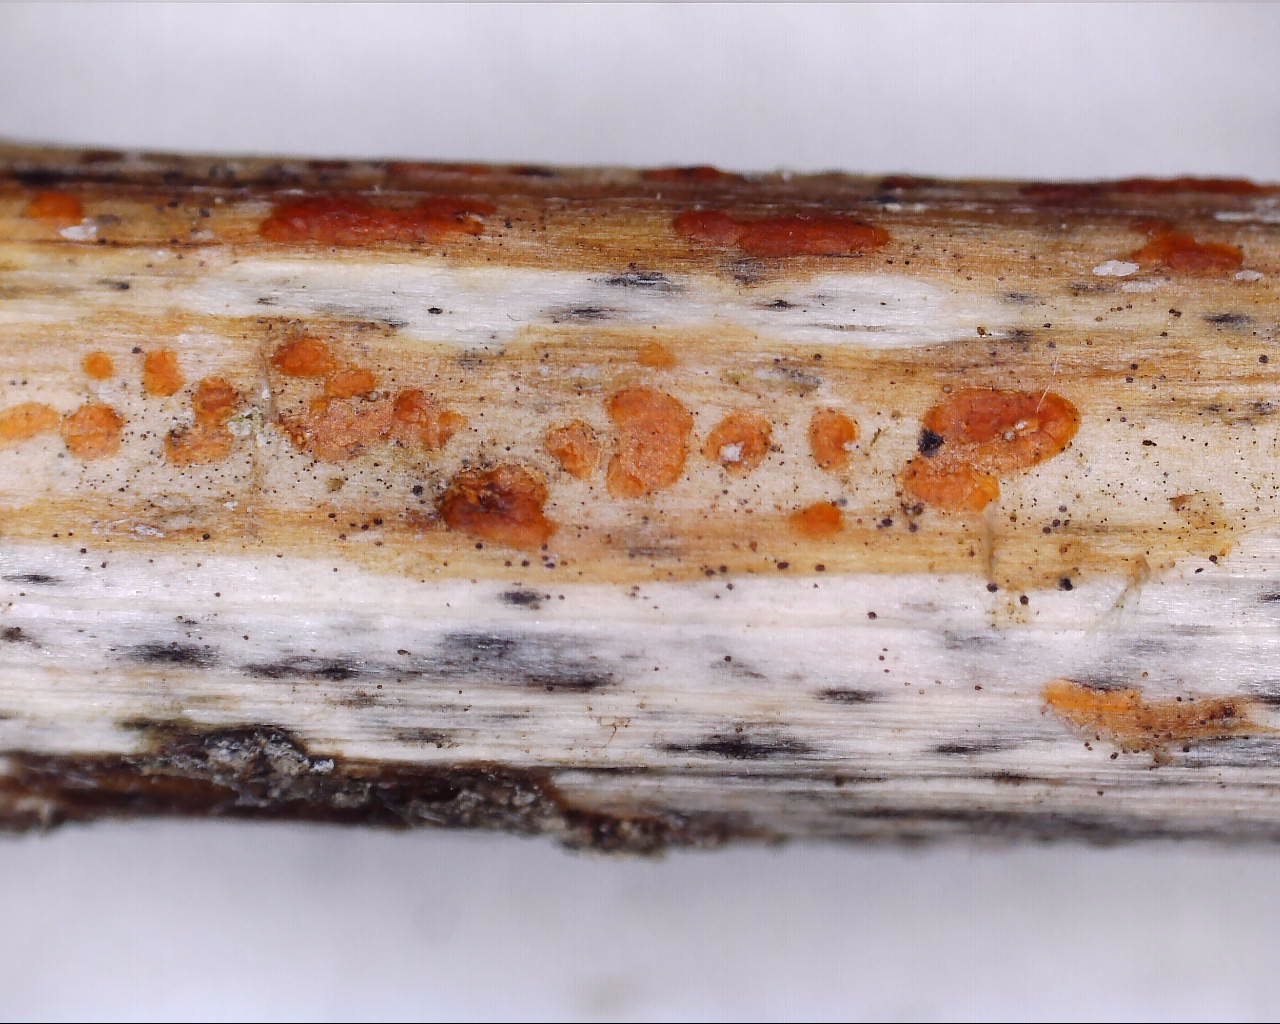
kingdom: Fungi
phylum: Ascomycota
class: Leotiomycetes
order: Helotiales
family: Calloriaceae
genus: Calloria
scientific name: Calloria urticae
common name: nælde-orangeskive
